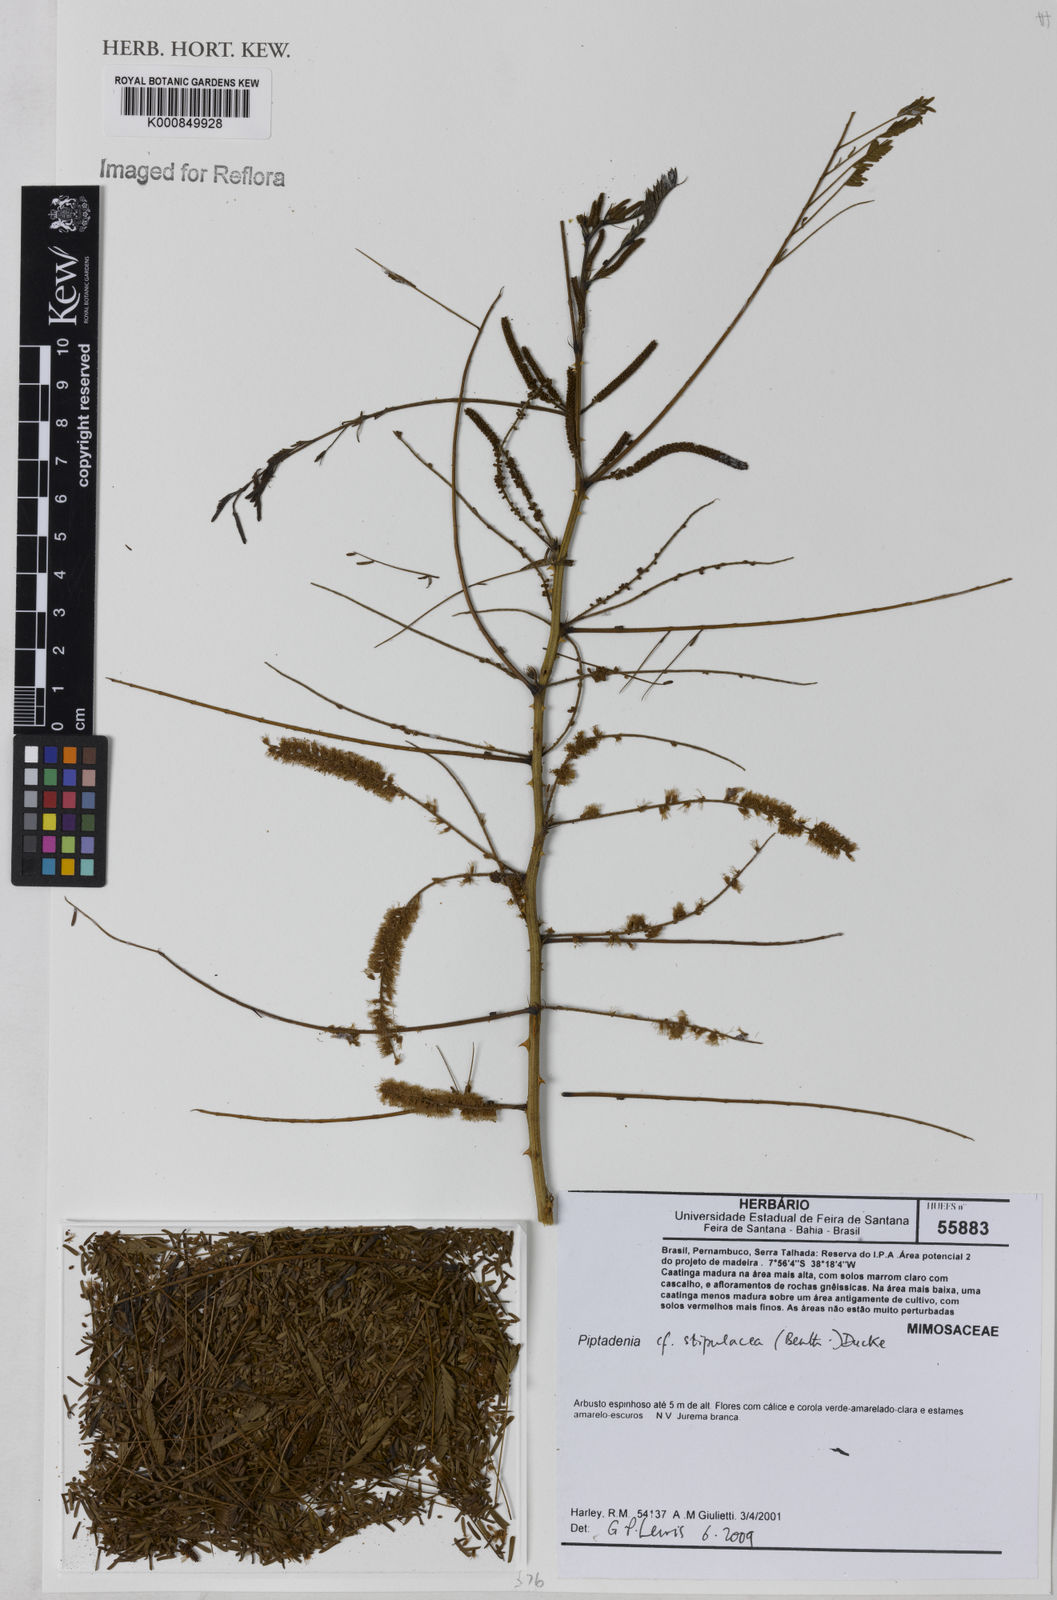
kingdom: Plantae
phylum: Tracheophyta
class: Magnoliopsida
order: Fabales
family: Fabaceae
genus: Piptadenia
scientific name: Piptadenia retusa
